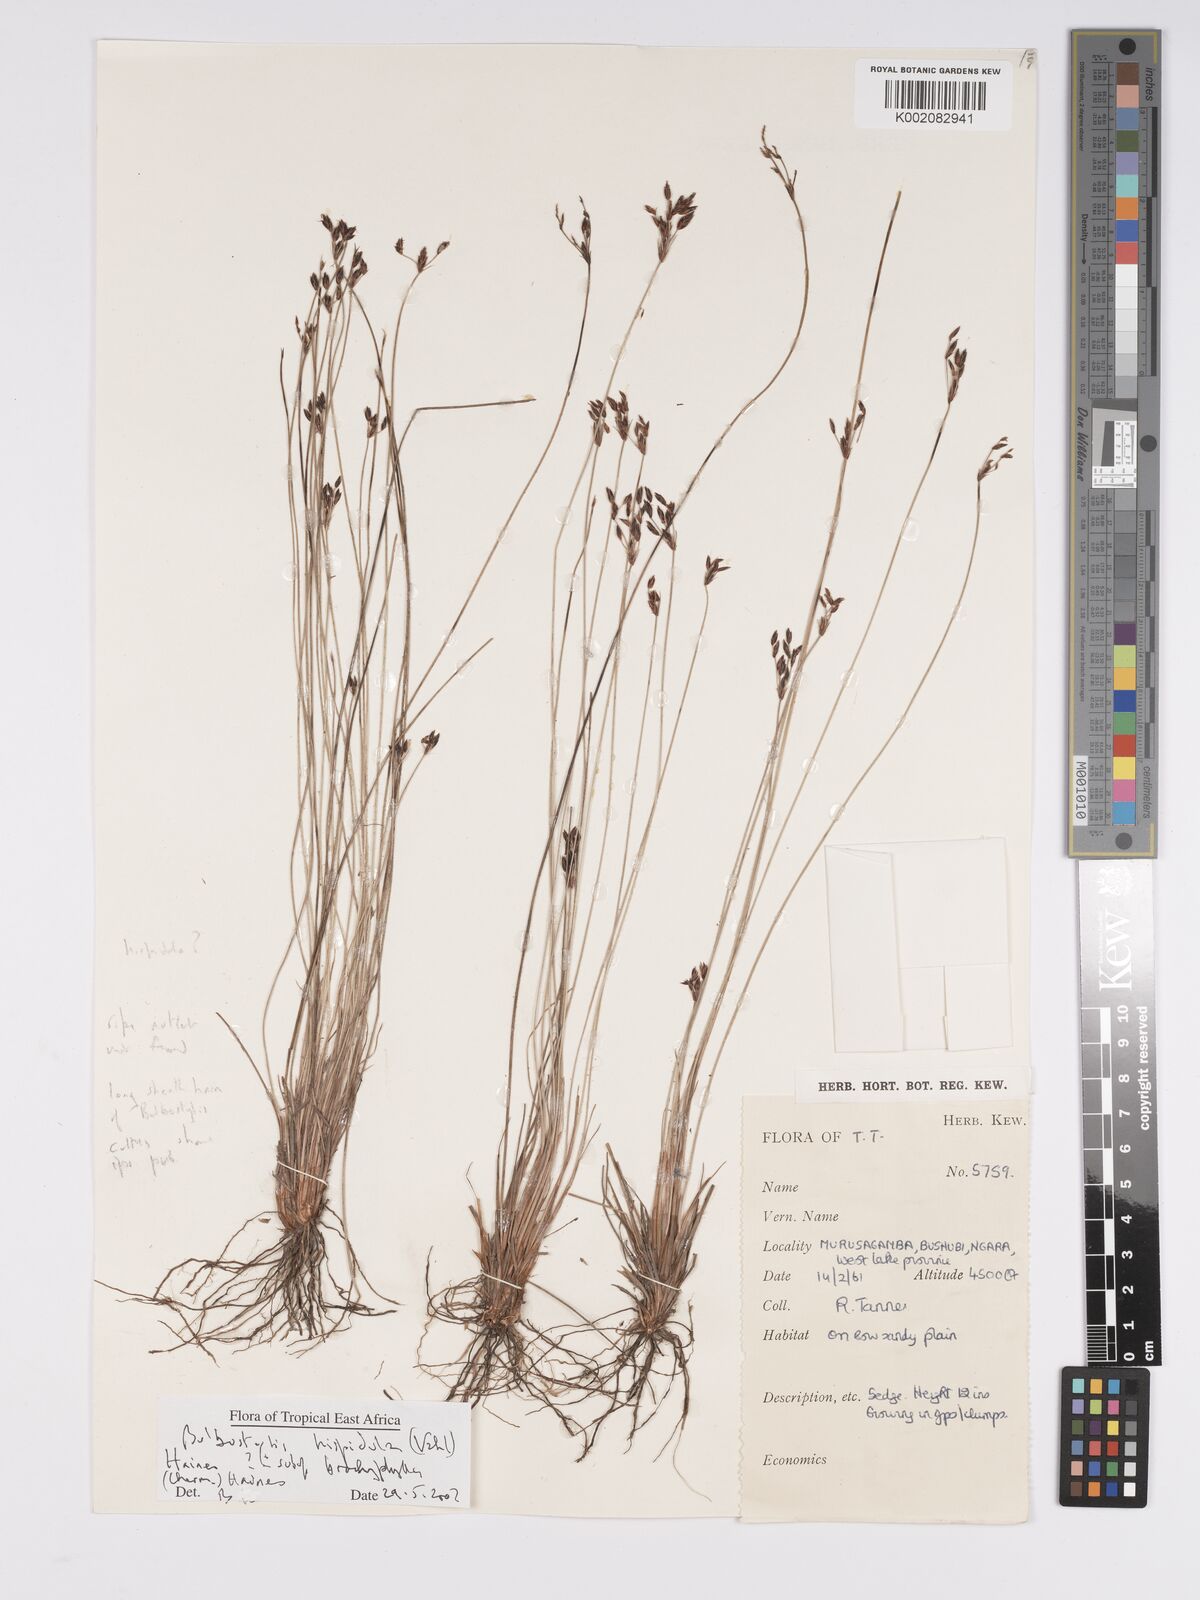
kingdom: Plantae
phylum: Tracheophyta
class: Liliopsida
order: Poales
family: Cyperaceae
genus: Bulbostylis
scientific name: Bulbostylis hispidula
